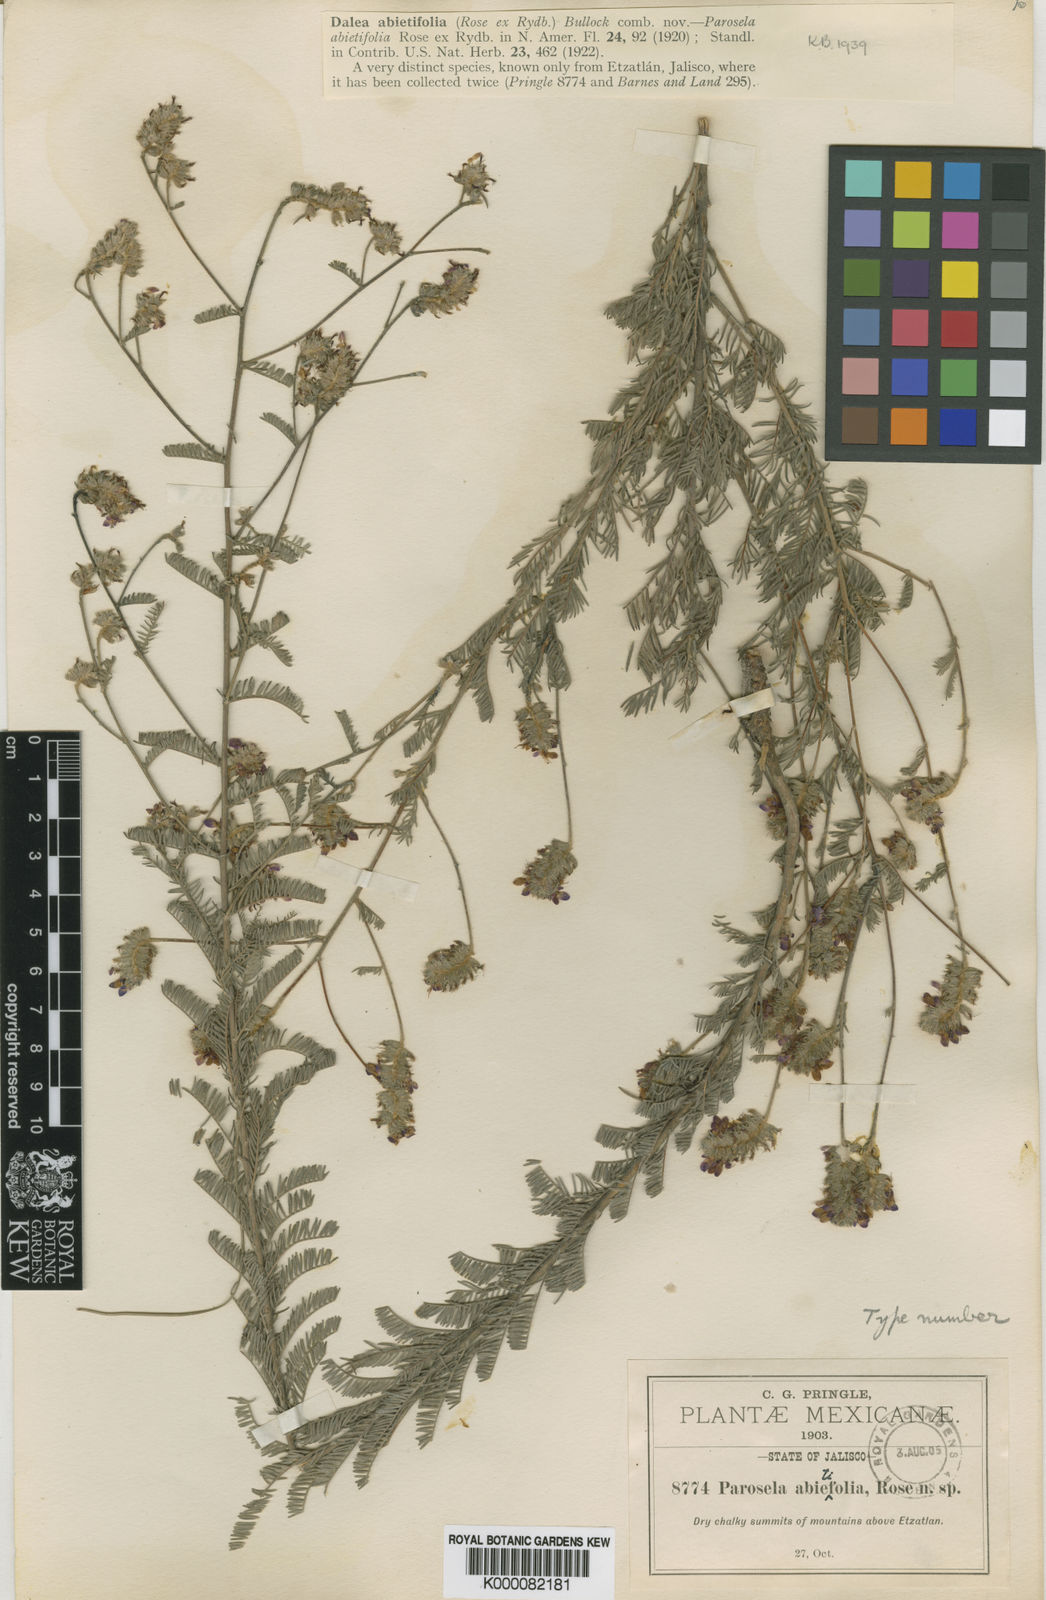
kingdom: Plantae
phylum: Tracheophyta
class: Magnoliopsida
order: Fabales
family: Fabaceae
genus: Dalea
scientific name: Dalea abietifolia
